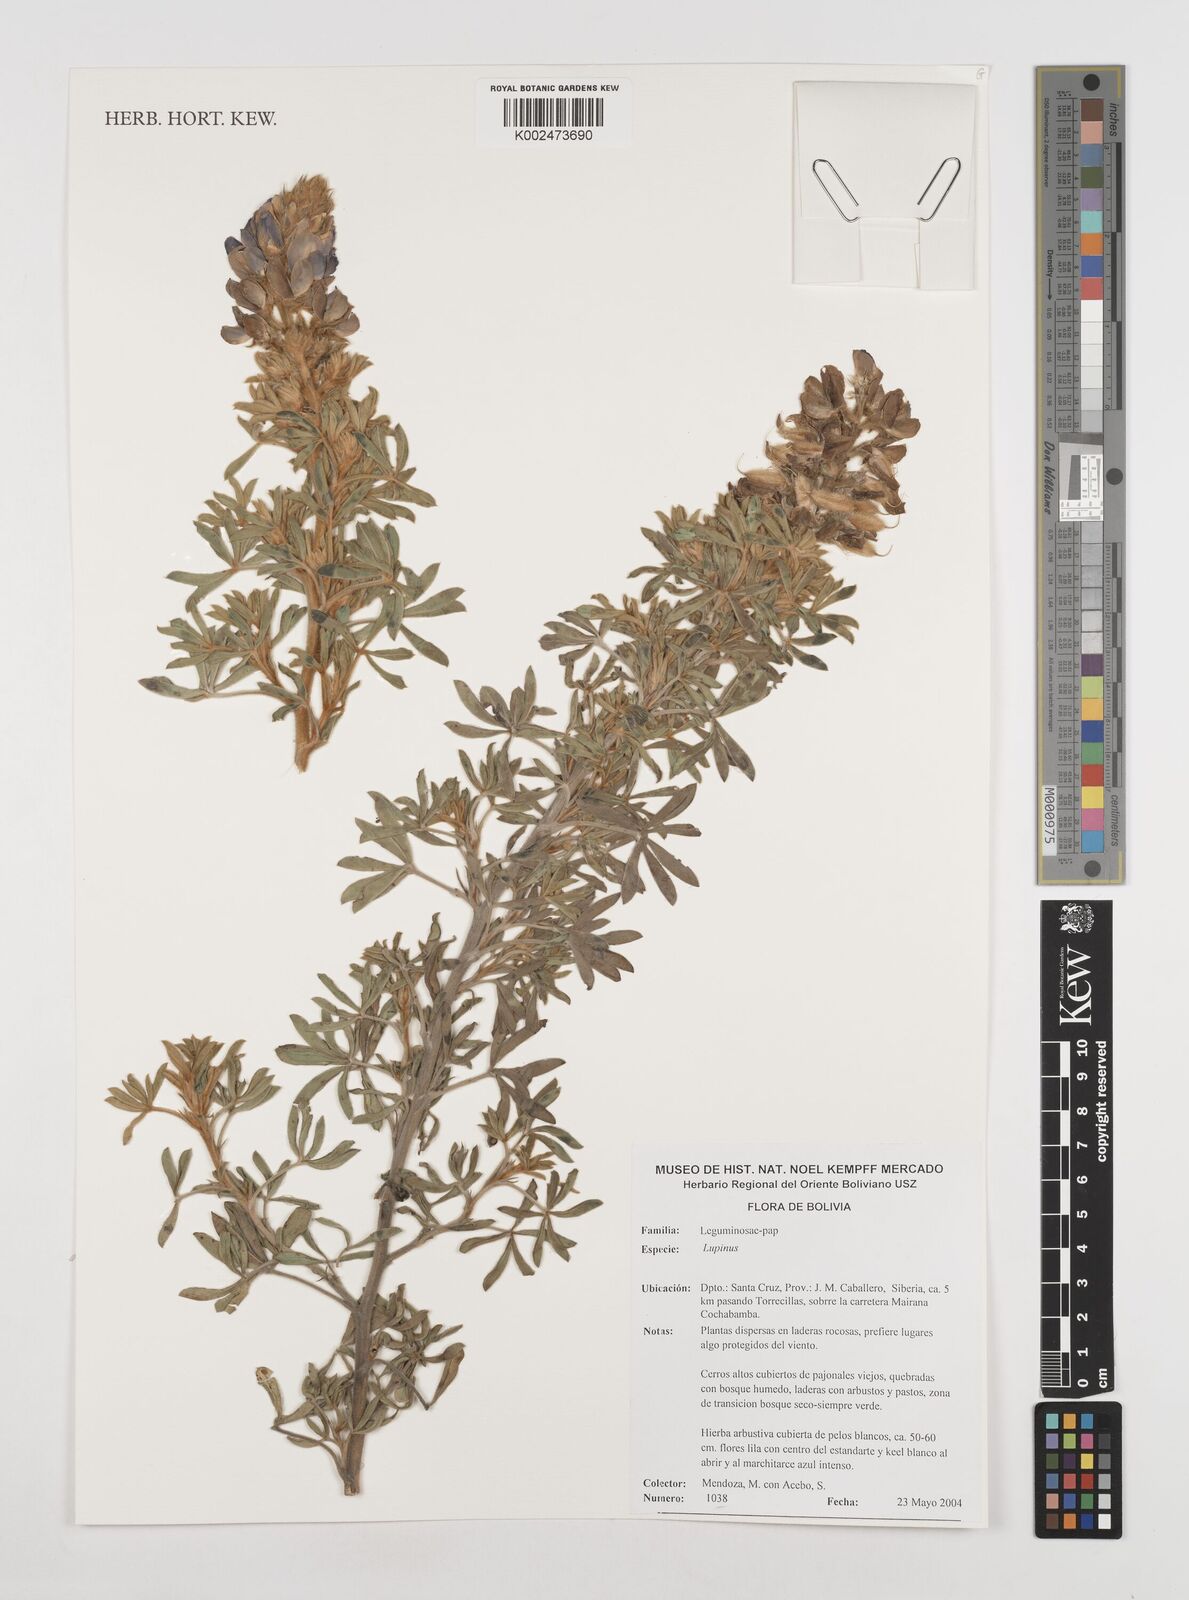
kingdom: Plantae
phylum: Tracheophyta
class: Magnoliopsida
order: Fabales
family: Fabaceae
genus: Lupinus
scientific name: Lupinus
